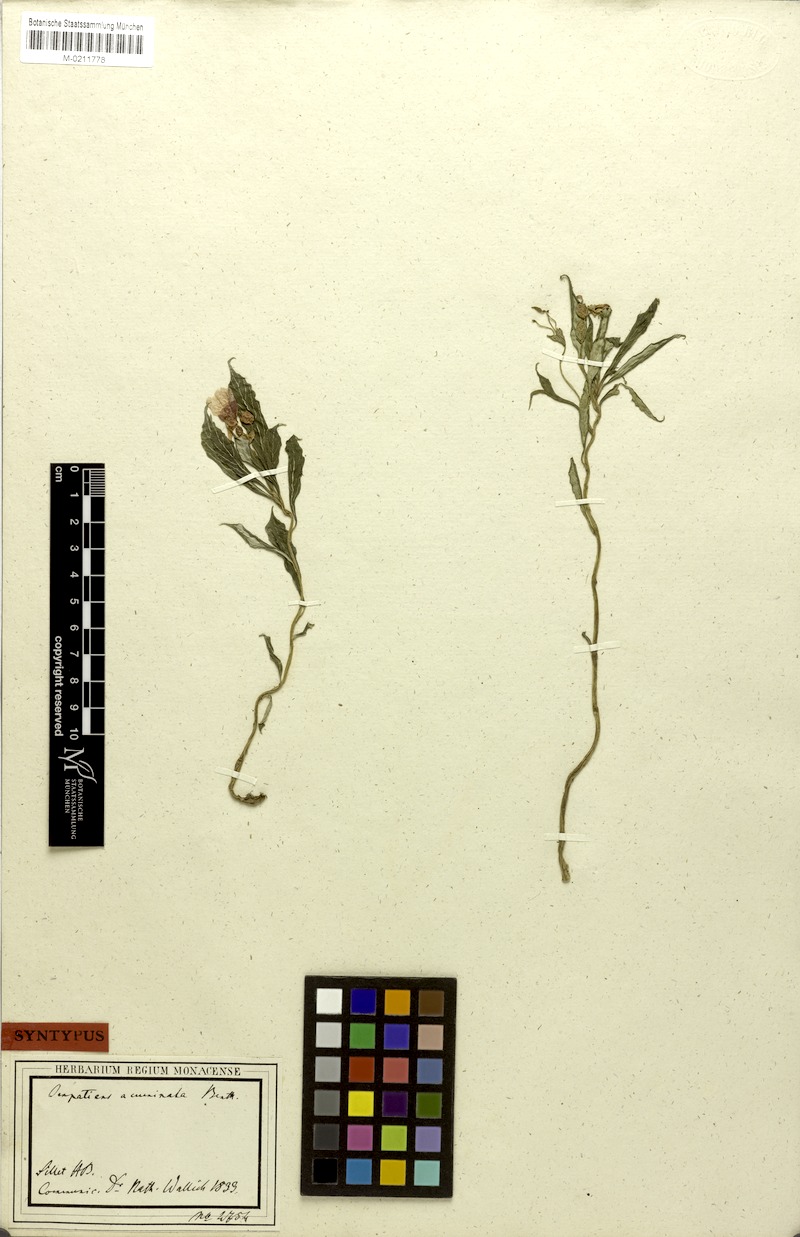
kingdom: Plantae
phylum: Tracheophyta
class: Magnoliopsida
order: Ericales
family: Balsaminaceae
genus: Impatiens
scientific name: Impatiens acuminata
